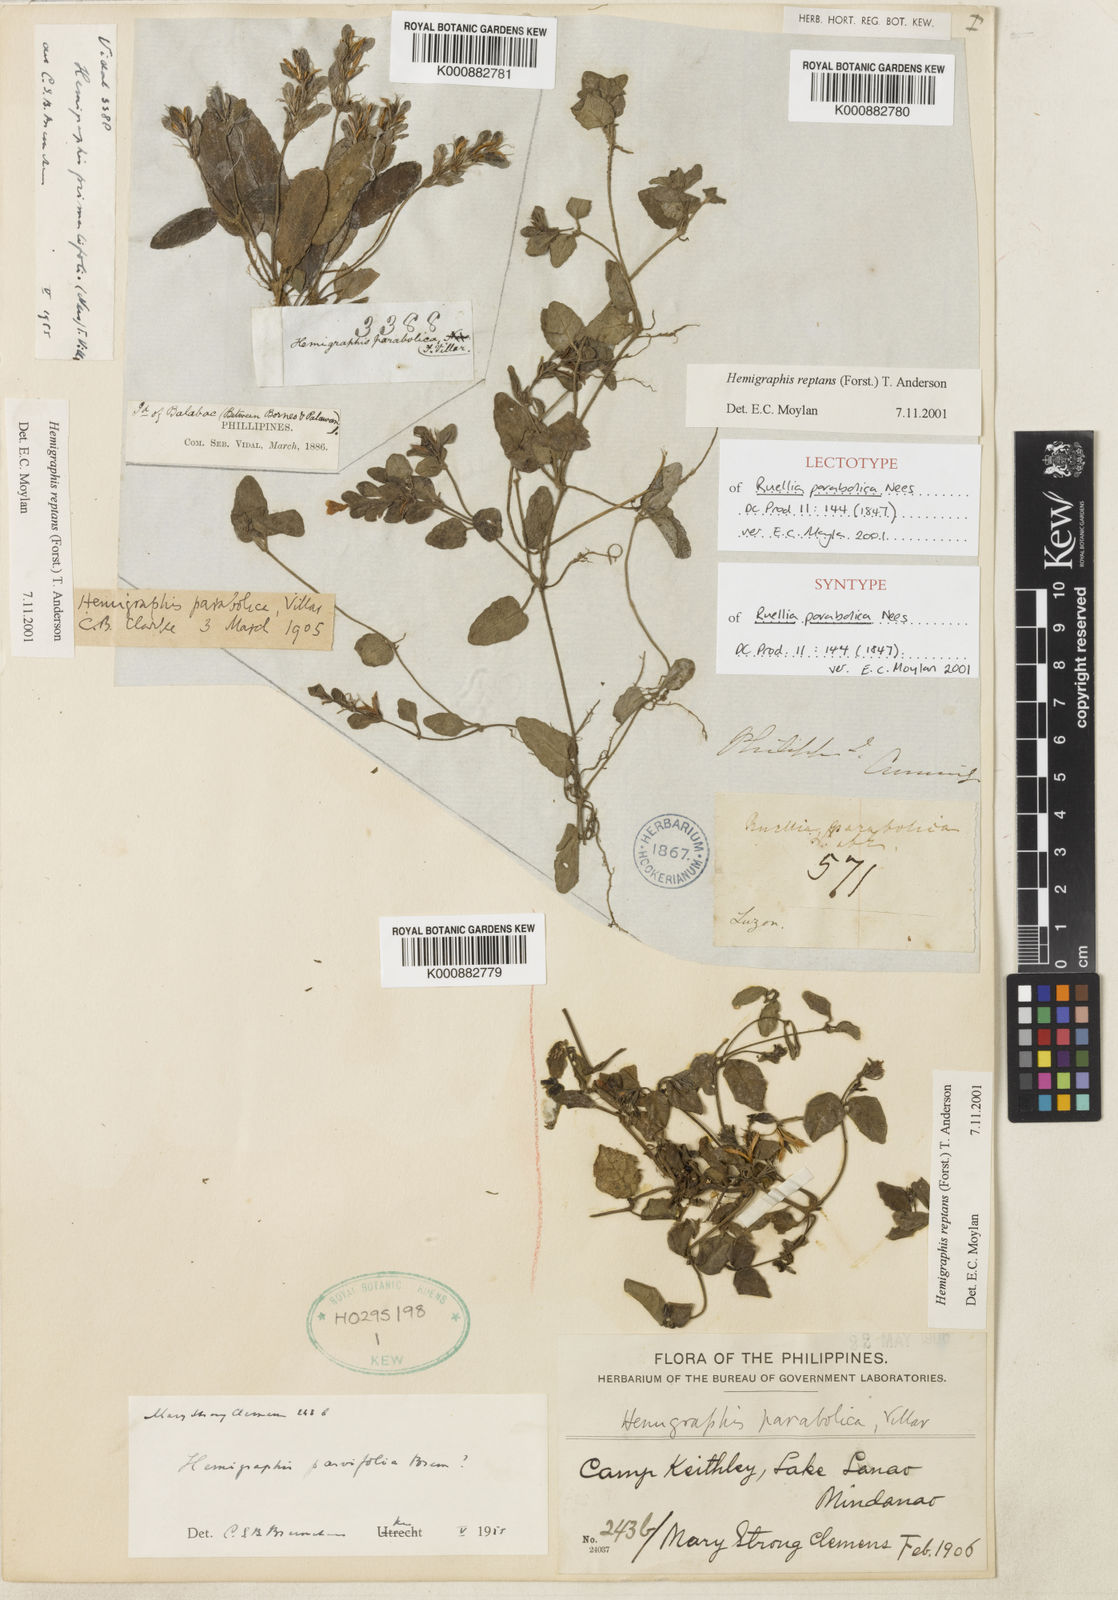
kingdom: Plantae
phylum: Tracheophyta
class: Magnoliopsida
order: Lamiales
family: Acanthaceae
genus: Strobilanthes
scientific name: Strobilanthes reptans
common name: Acanthaceae
